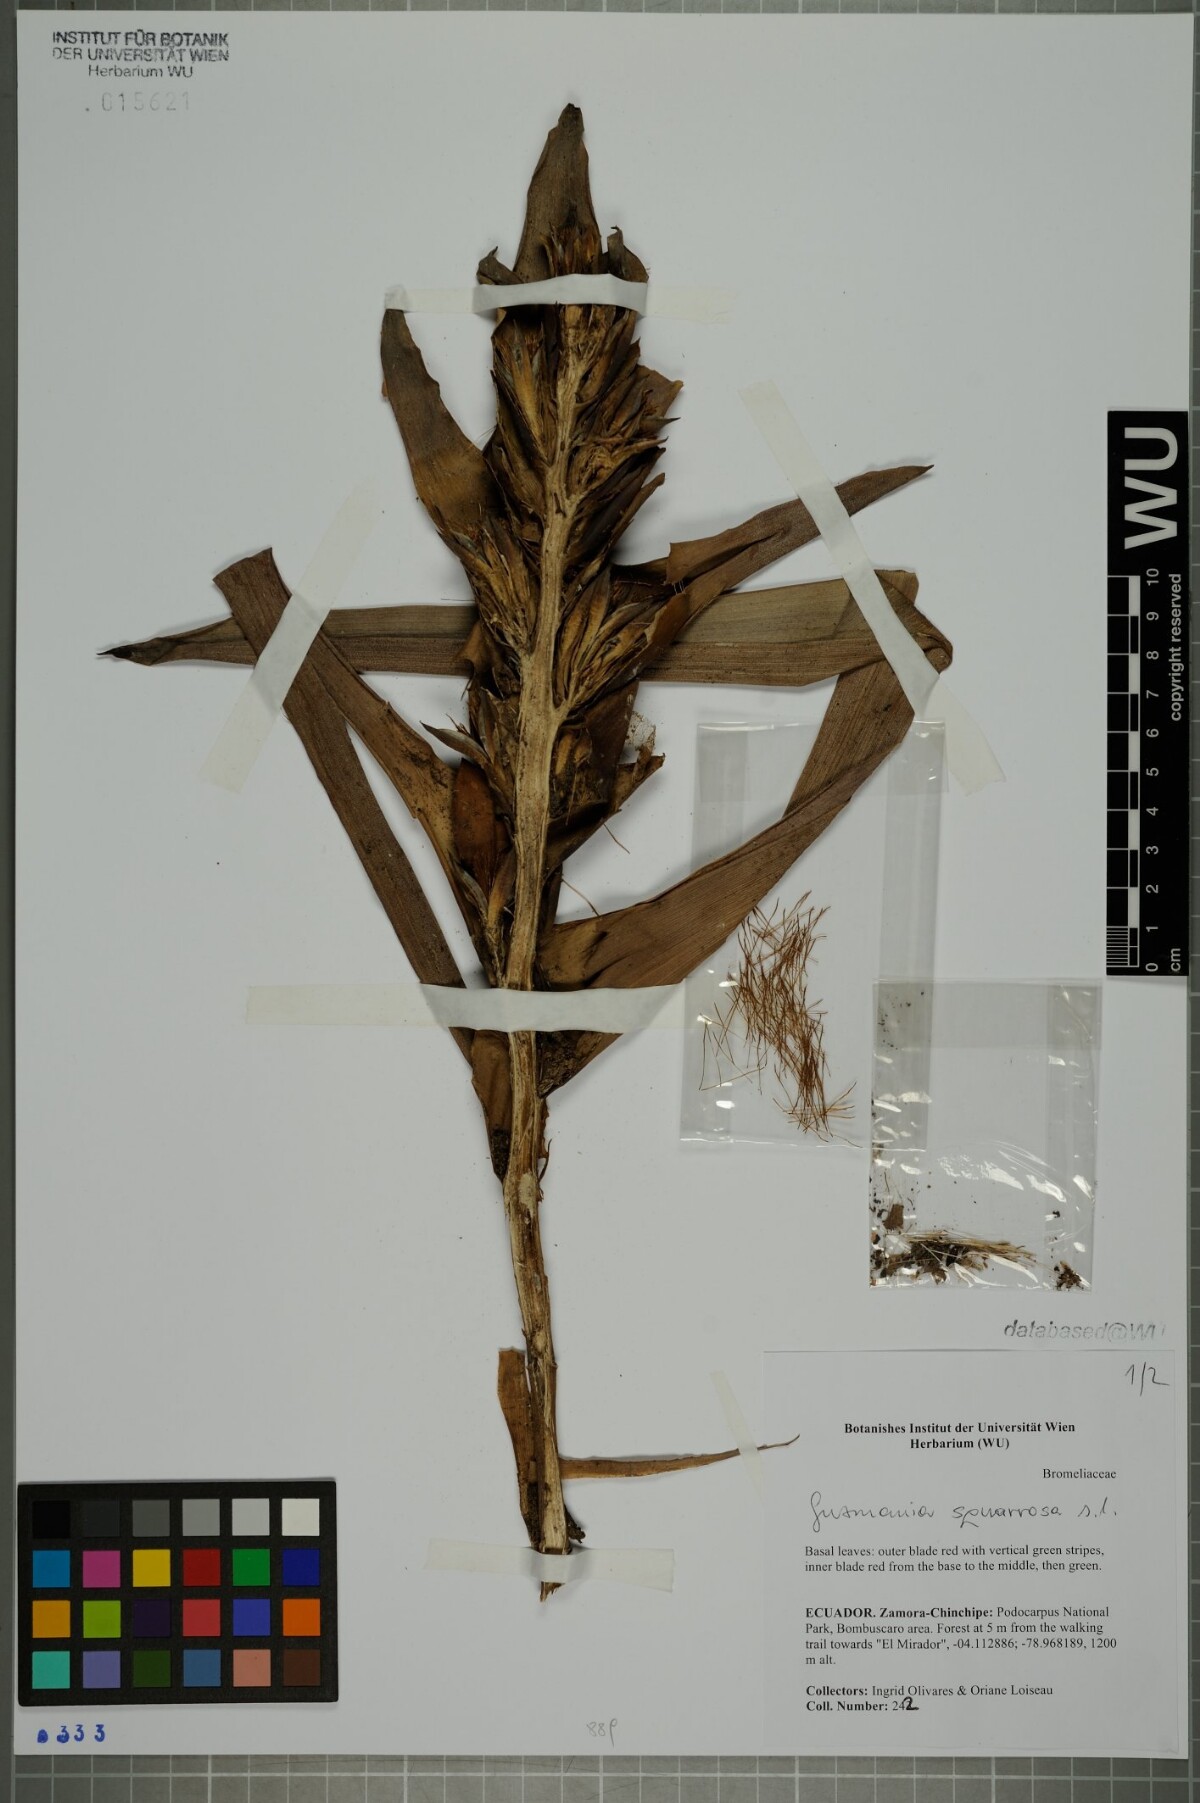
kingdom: Plantae
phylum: Tracheophyta
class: Liliopsida
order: Poales
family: Bromeliaceae
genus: Guzmania
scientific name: Guzmania squarrosa
